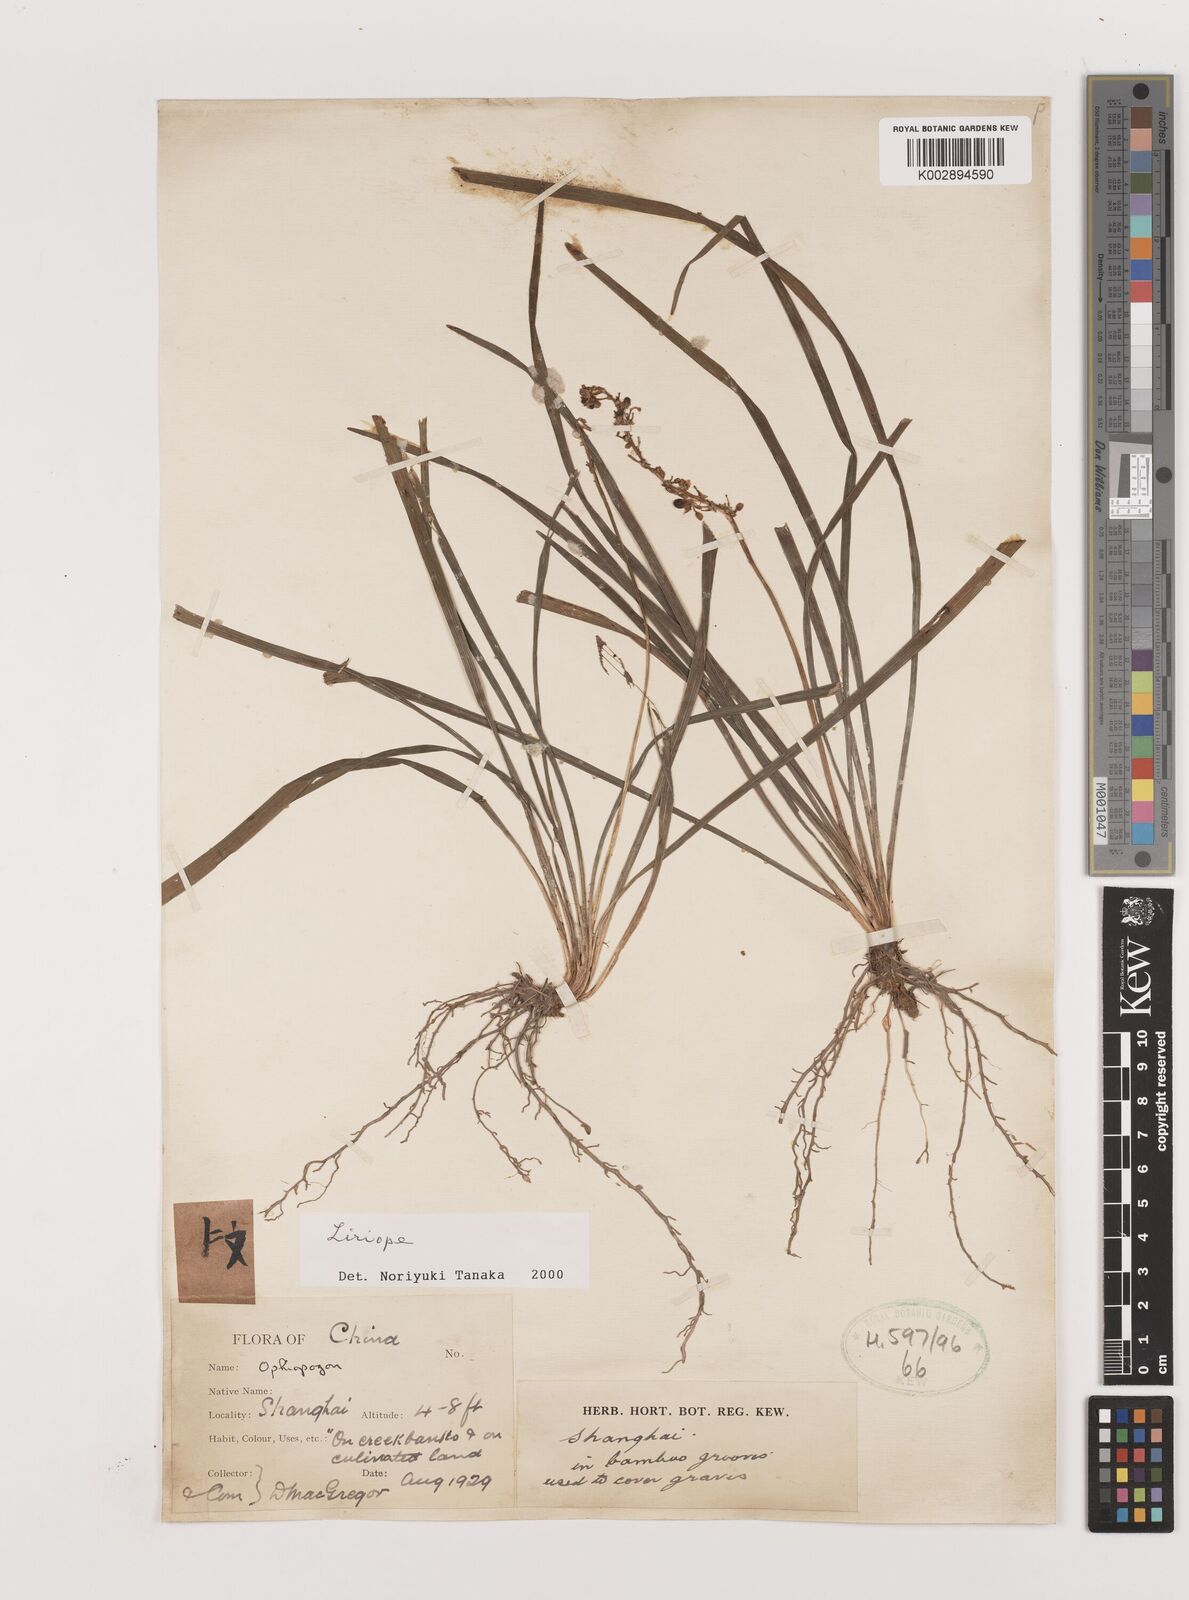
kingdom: Plantae
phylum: Tracheophyta
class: Liliopsida
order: Asparagales
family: Asparagaceae
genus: Liriope
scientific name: Liriope
